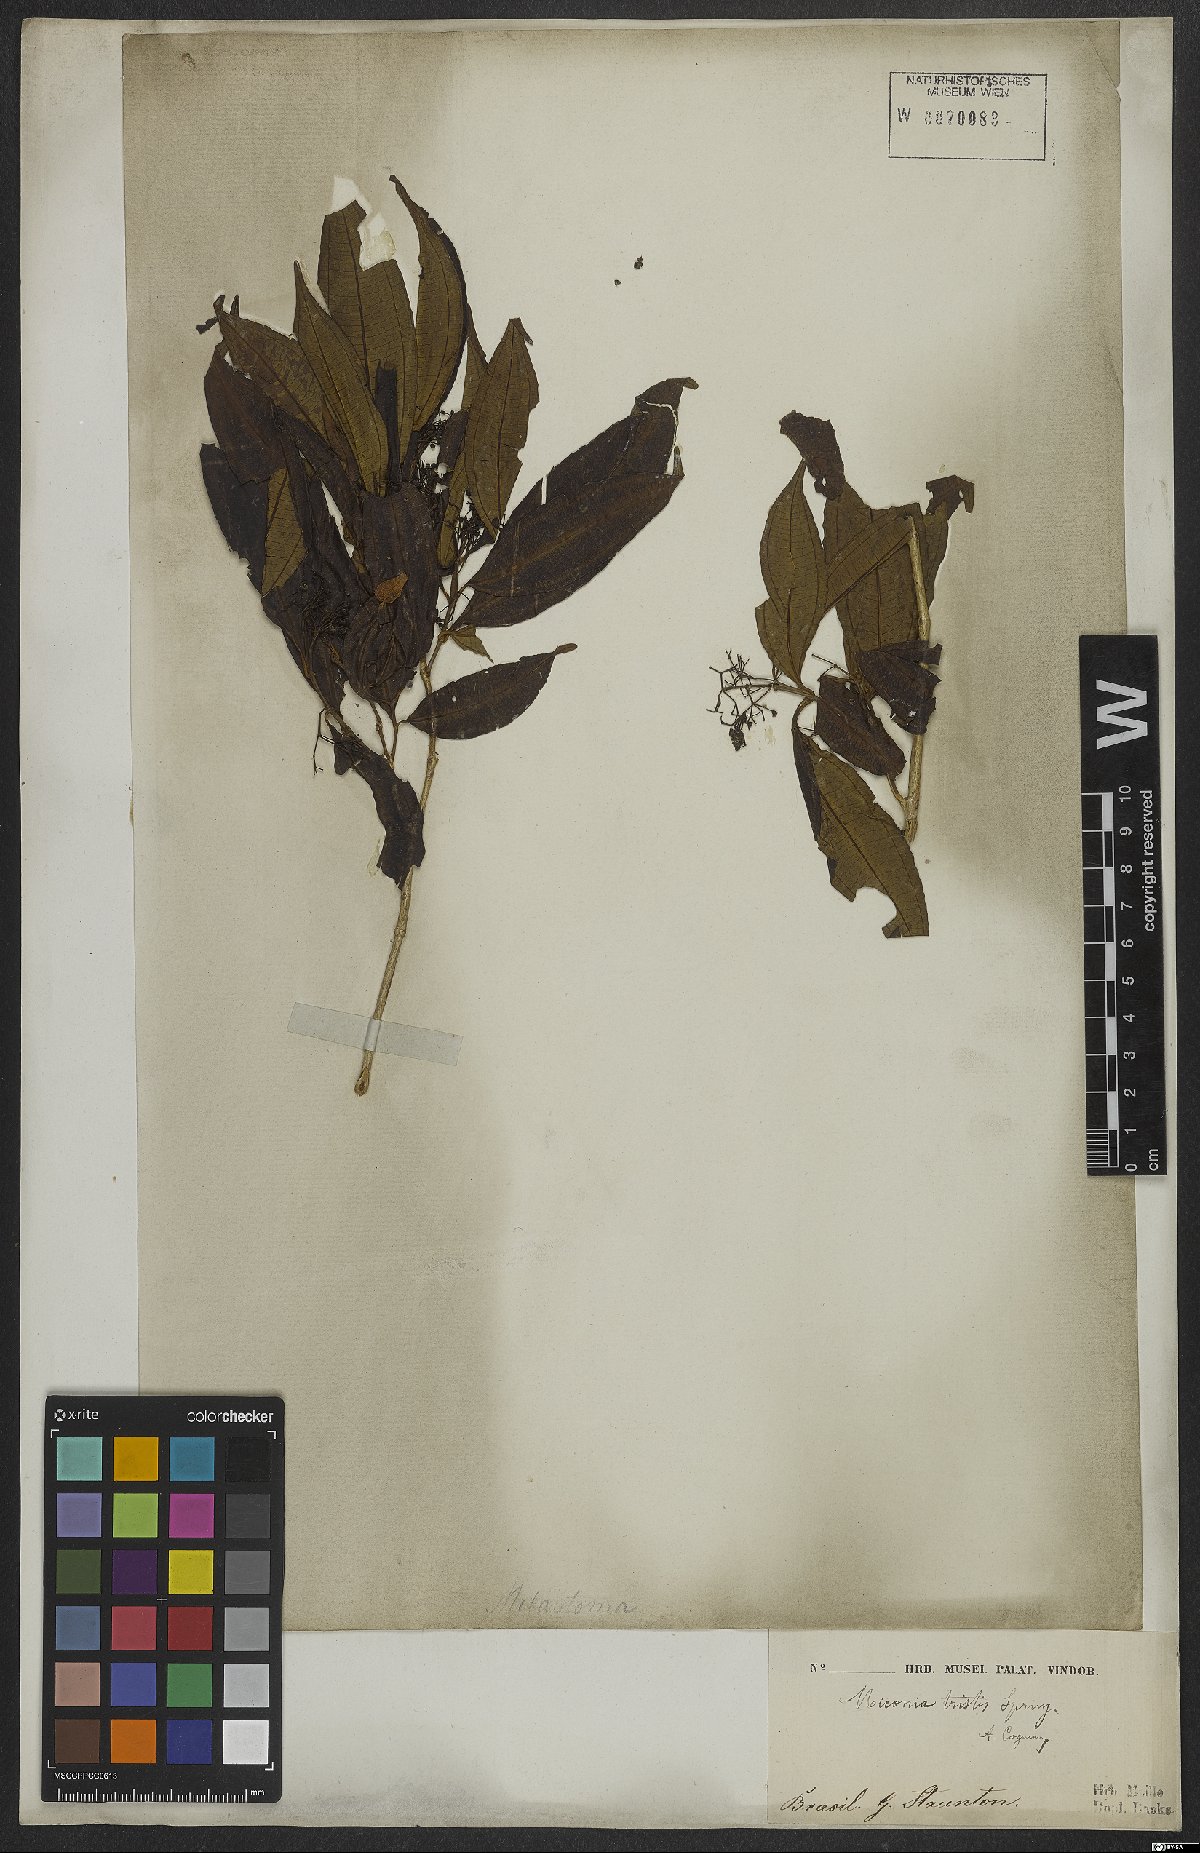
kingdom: Plantae
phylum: Tracheophyta
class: Magnoliopsida
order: Myrtales
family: Melastomataceae
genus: Miconia
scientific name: Miconia tristis
